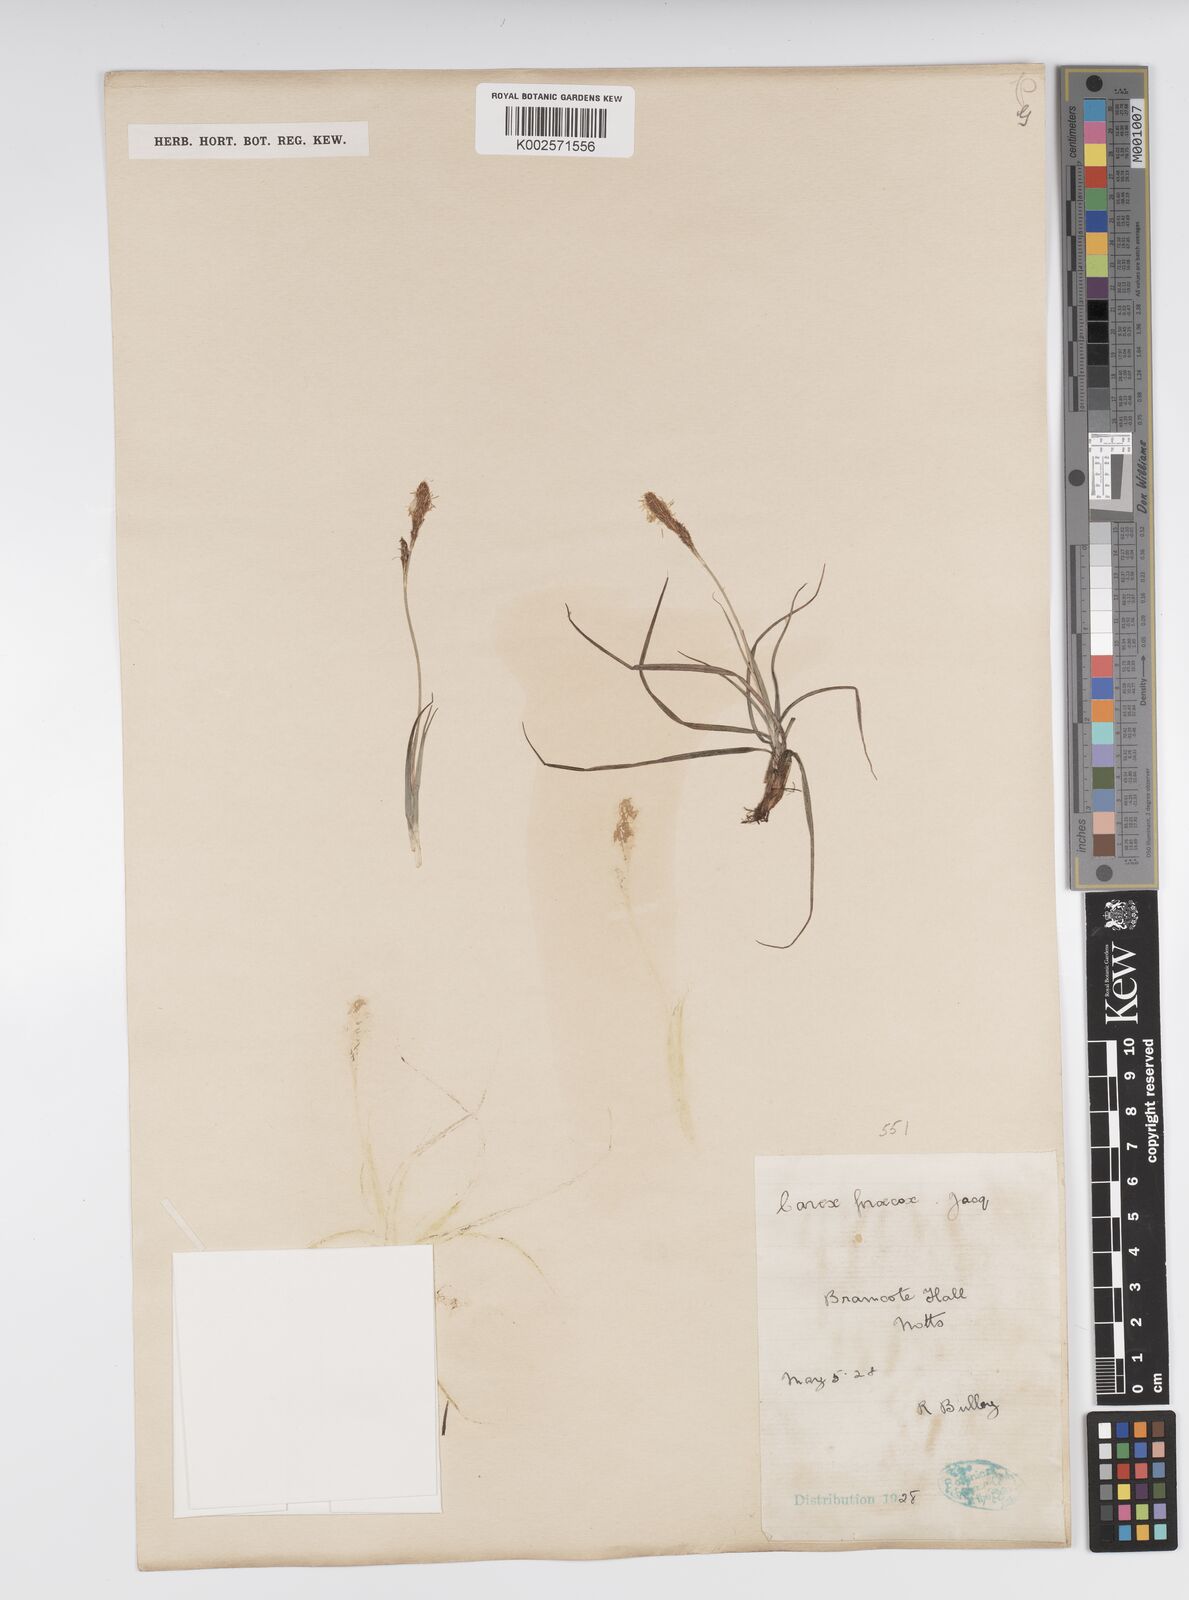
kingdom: Plantae
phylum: Tracheophyta
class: Liliopsida
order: Poales
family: Cyperaceae
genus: Carex
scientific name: Carex caryophyllea
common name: Spring sedge
